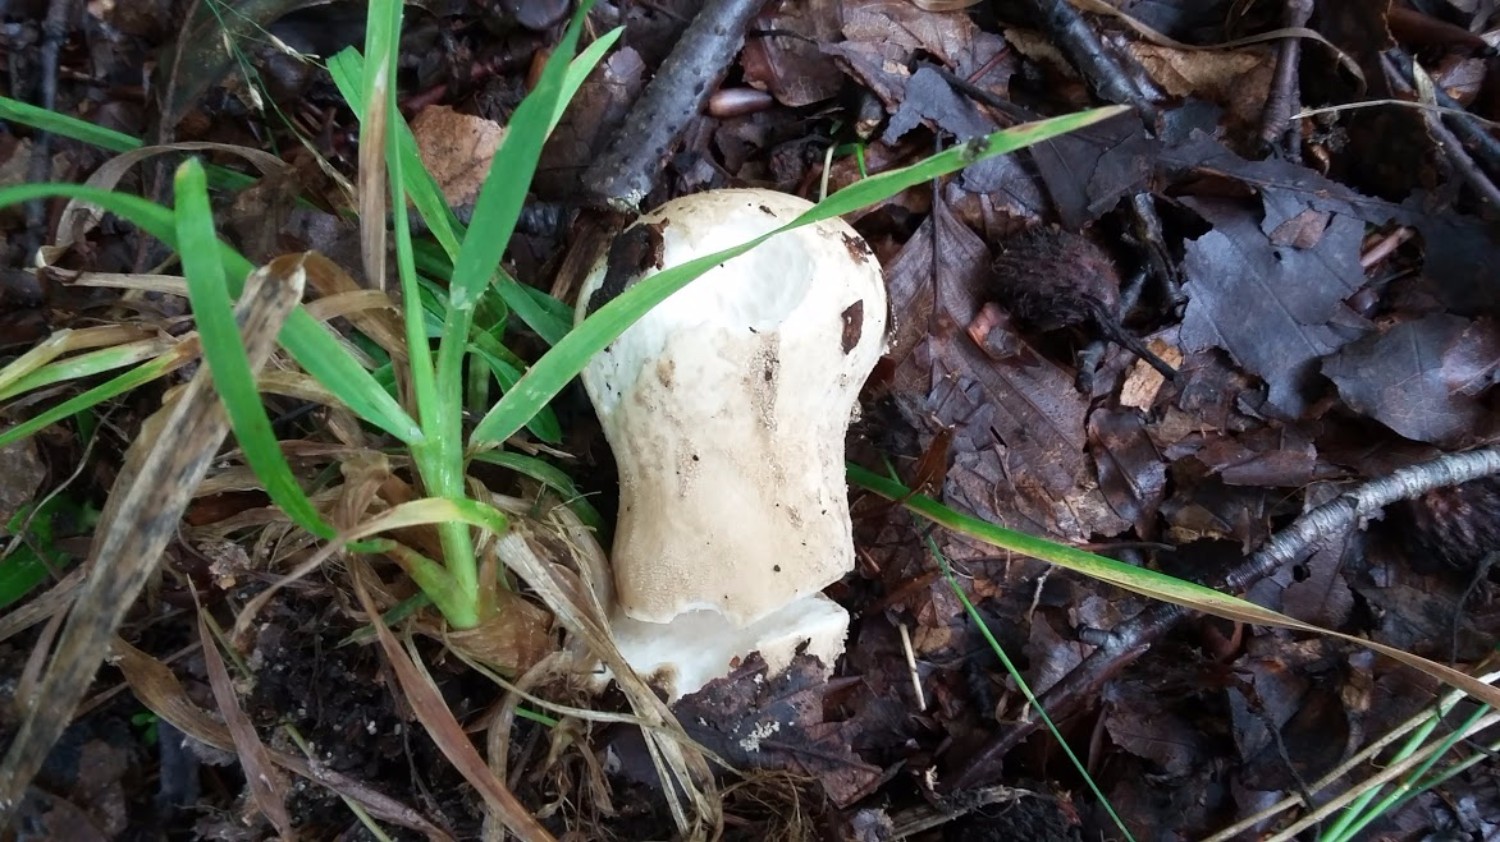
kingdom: Fungi
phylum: Basidiomycota
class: Agaricomycetes
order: Agaricales
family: Lycoperdaceae
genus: Lycoperdon
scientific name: Lycoperdon excipuliforme
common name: højstokket støvbold
